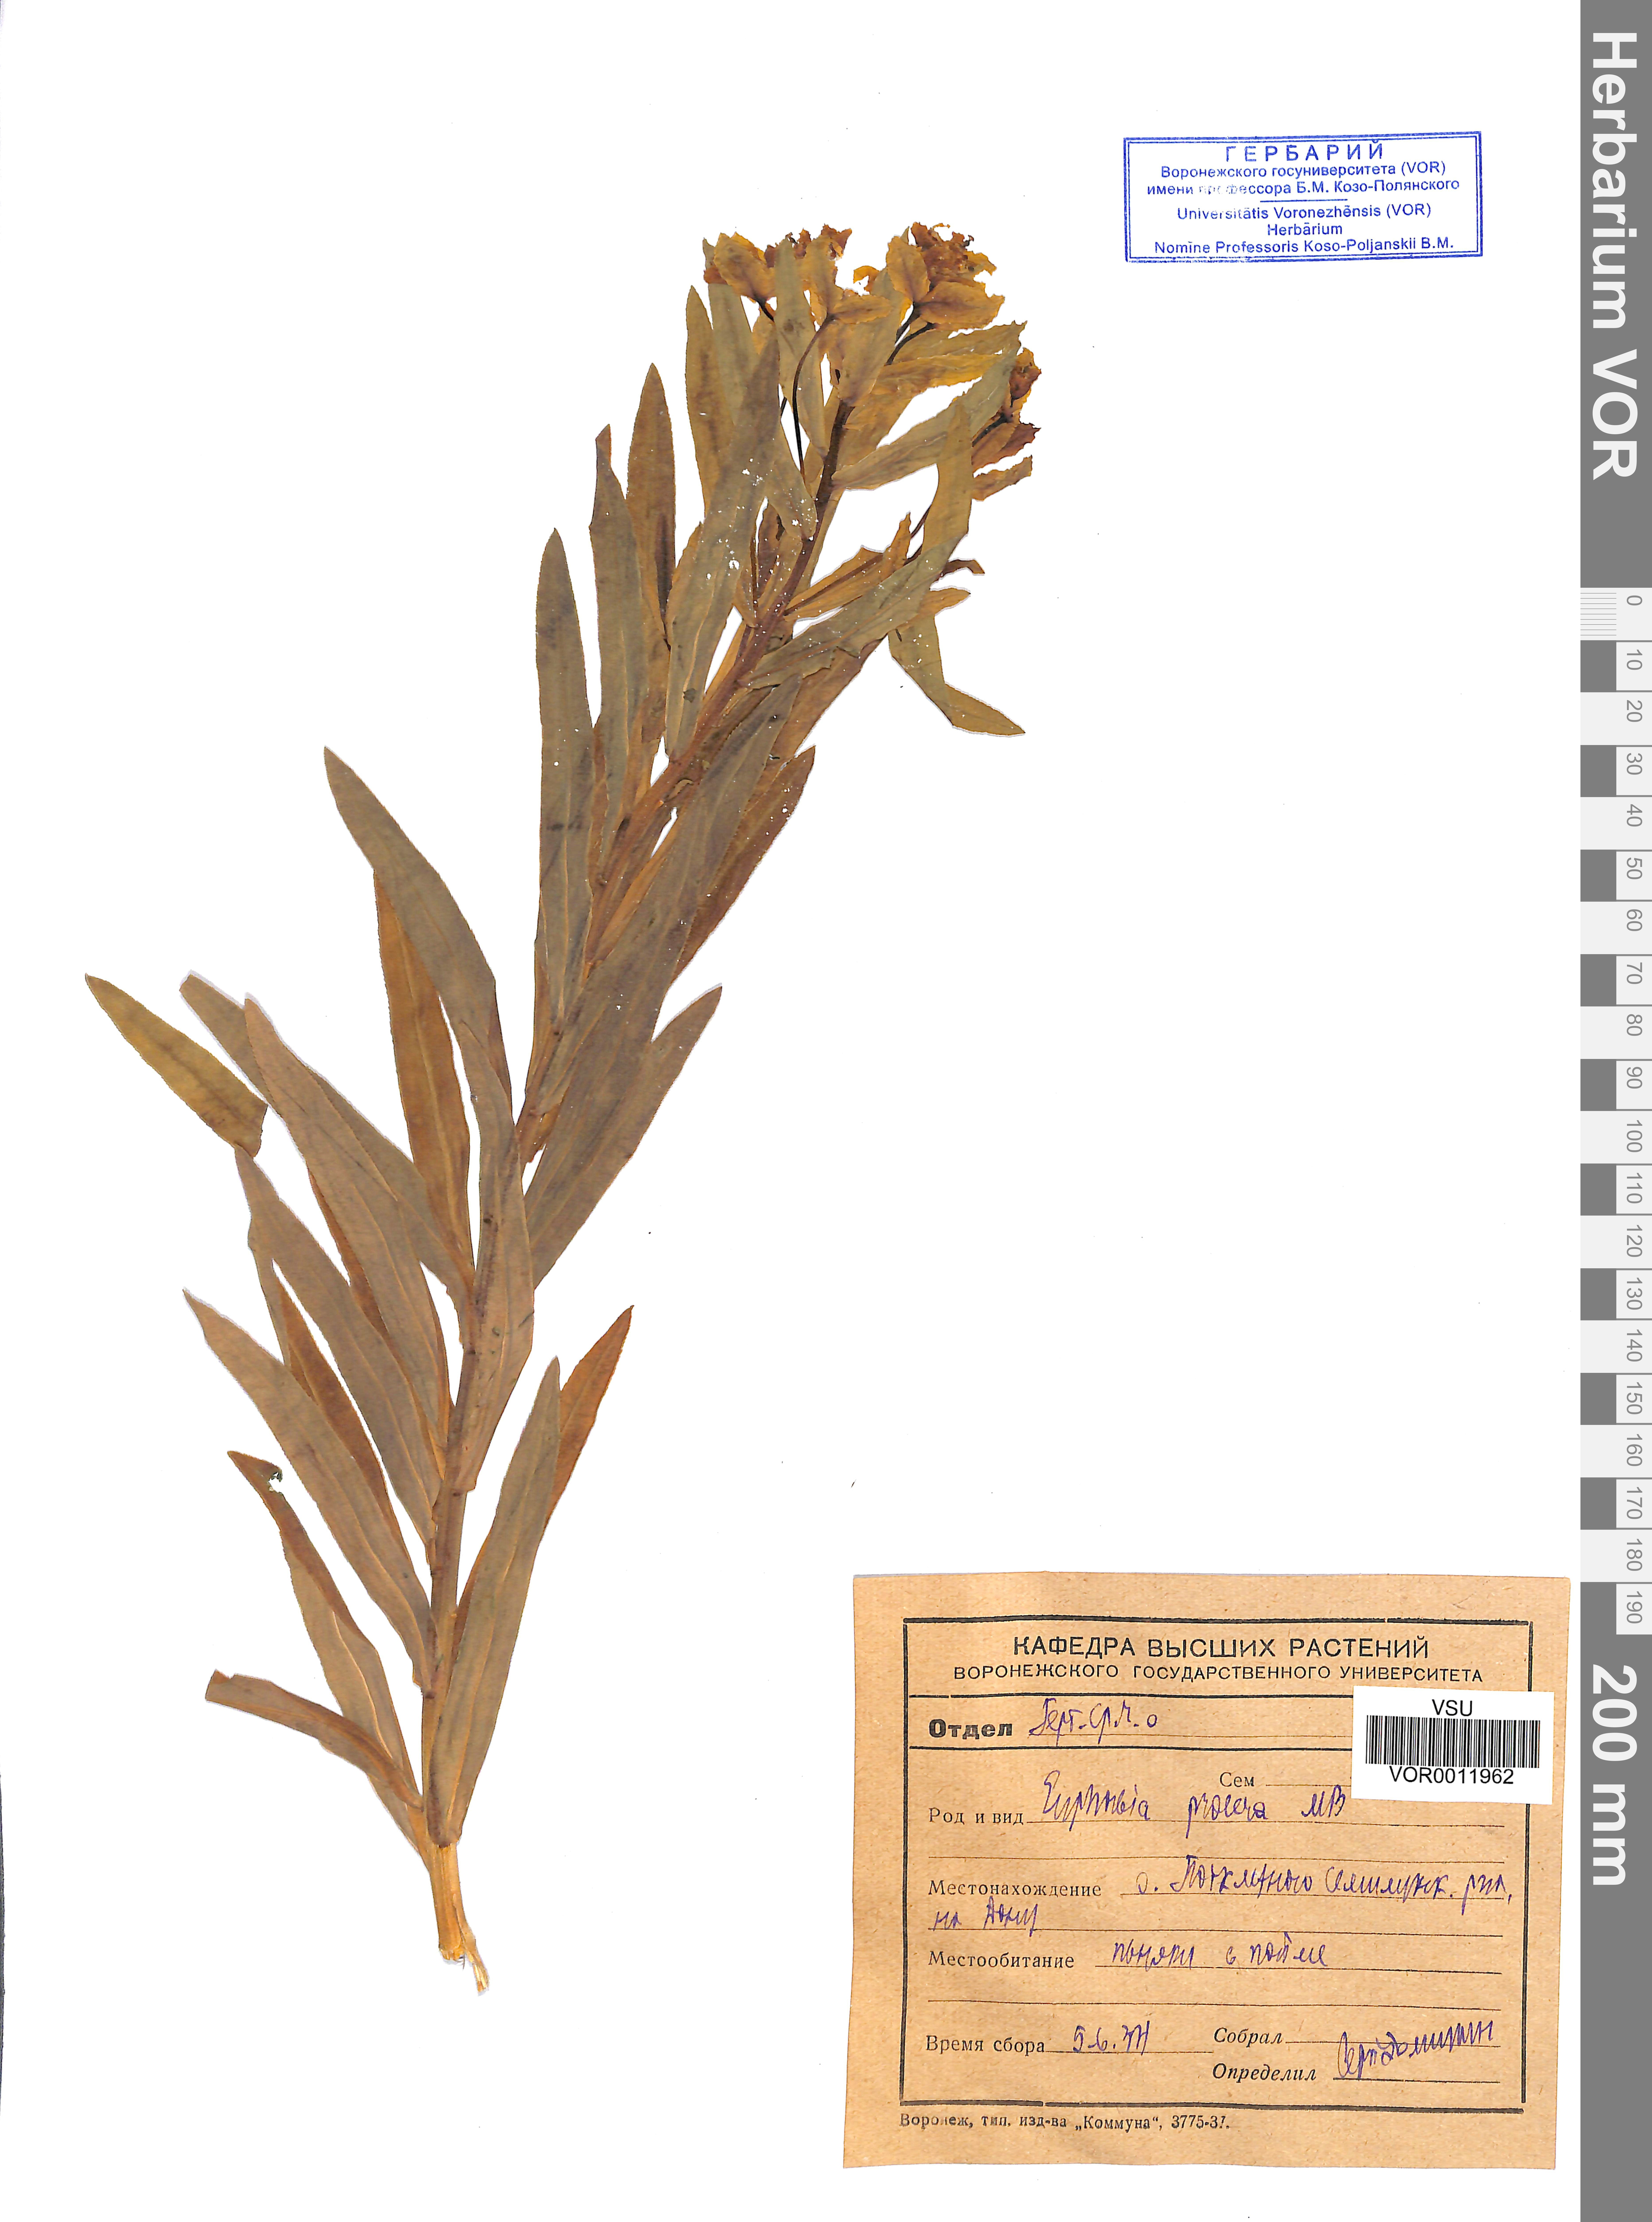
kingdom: Plantae
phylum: Tracheophyta
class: Magnoliopsida
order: Malpighiales
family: Euphorbiaceae
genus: Euphorbia
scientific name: Euphorbia semivillosa
